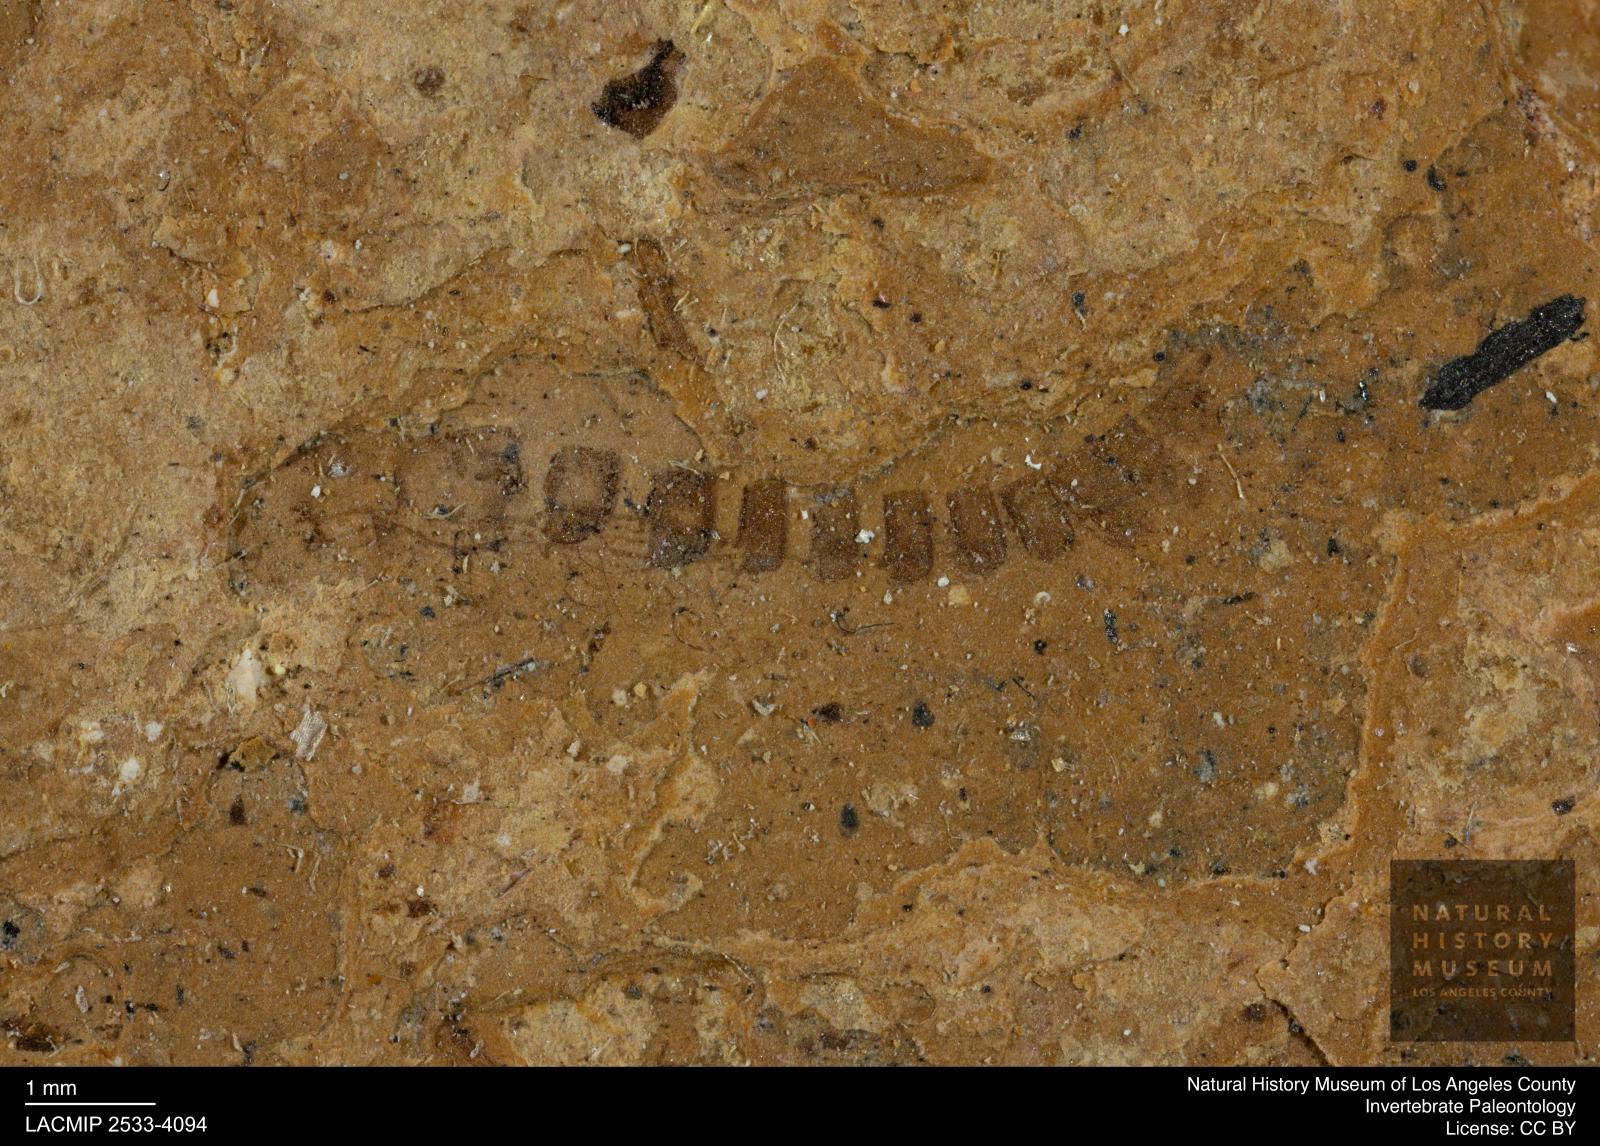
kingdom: Animalia
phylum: Arthropoda
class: Insecta
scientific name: Insecta
